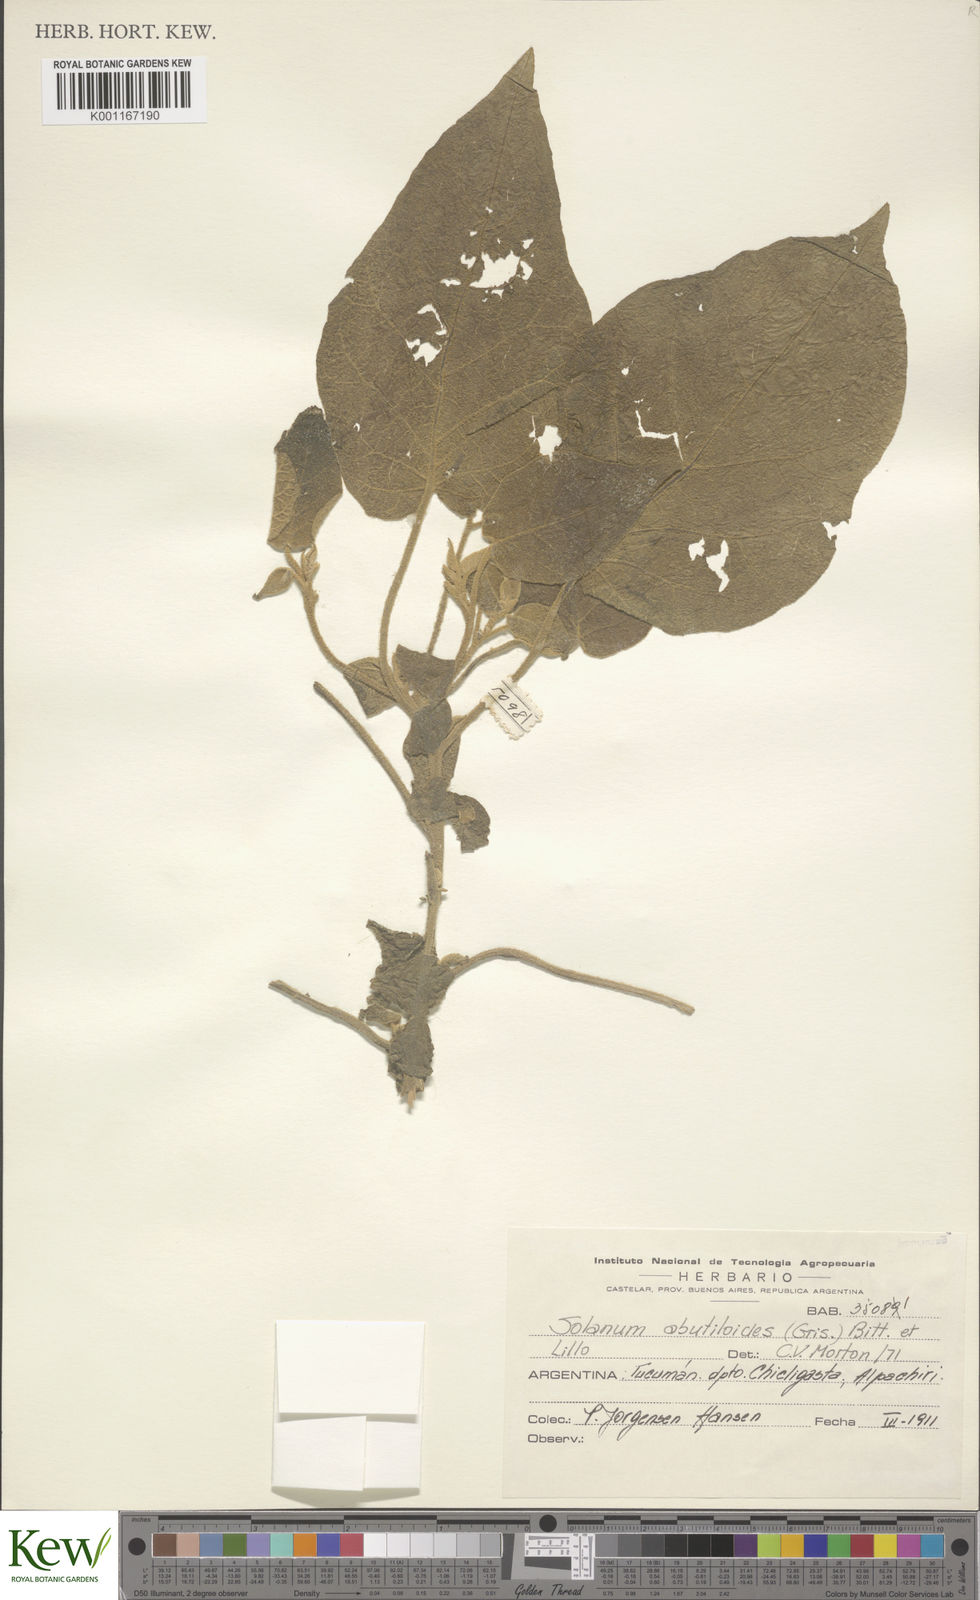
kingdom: Plantae
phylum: Tracheophyta
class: Magnoliopsida
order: Solanales
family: Solanaceae
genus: Solanum
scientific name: Solanum abutiloides
